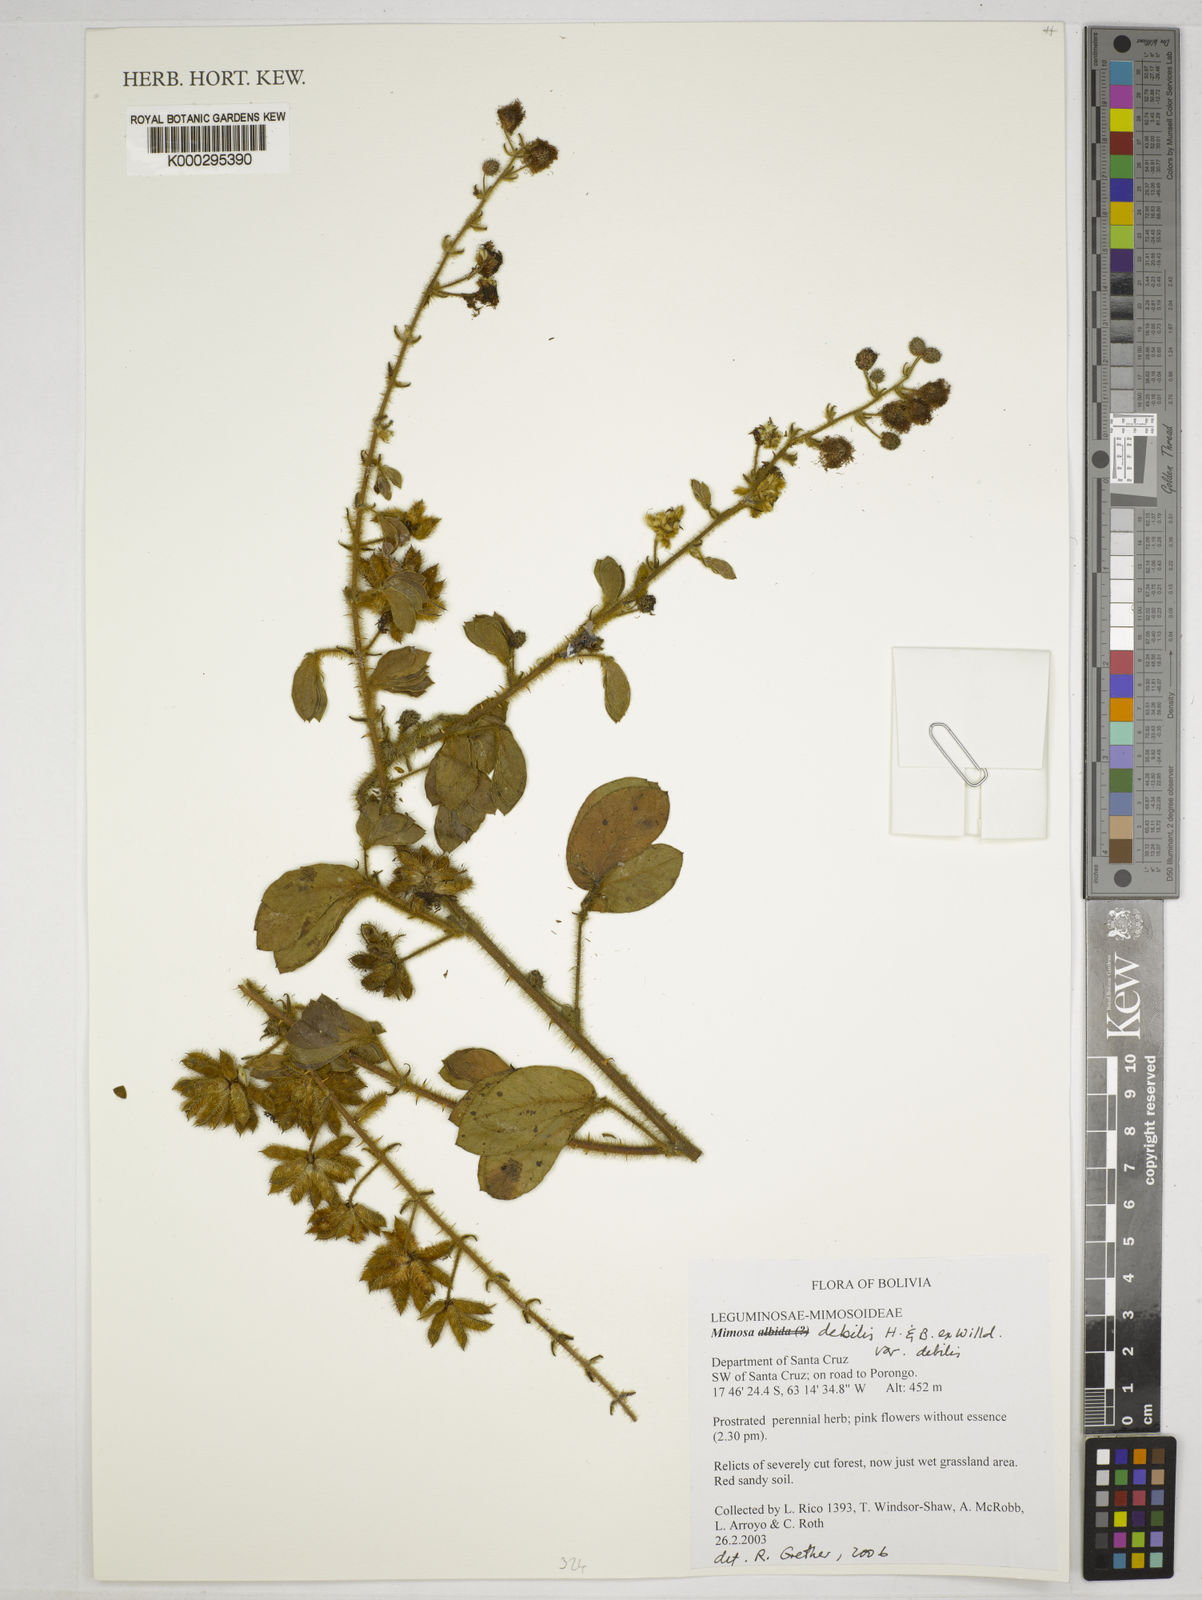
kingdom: Plantae
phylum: Tracheophyta
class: Magnoliopsida
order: Fabales
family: Fabaceae
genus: Mimosa
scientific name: Mimosa debilis
